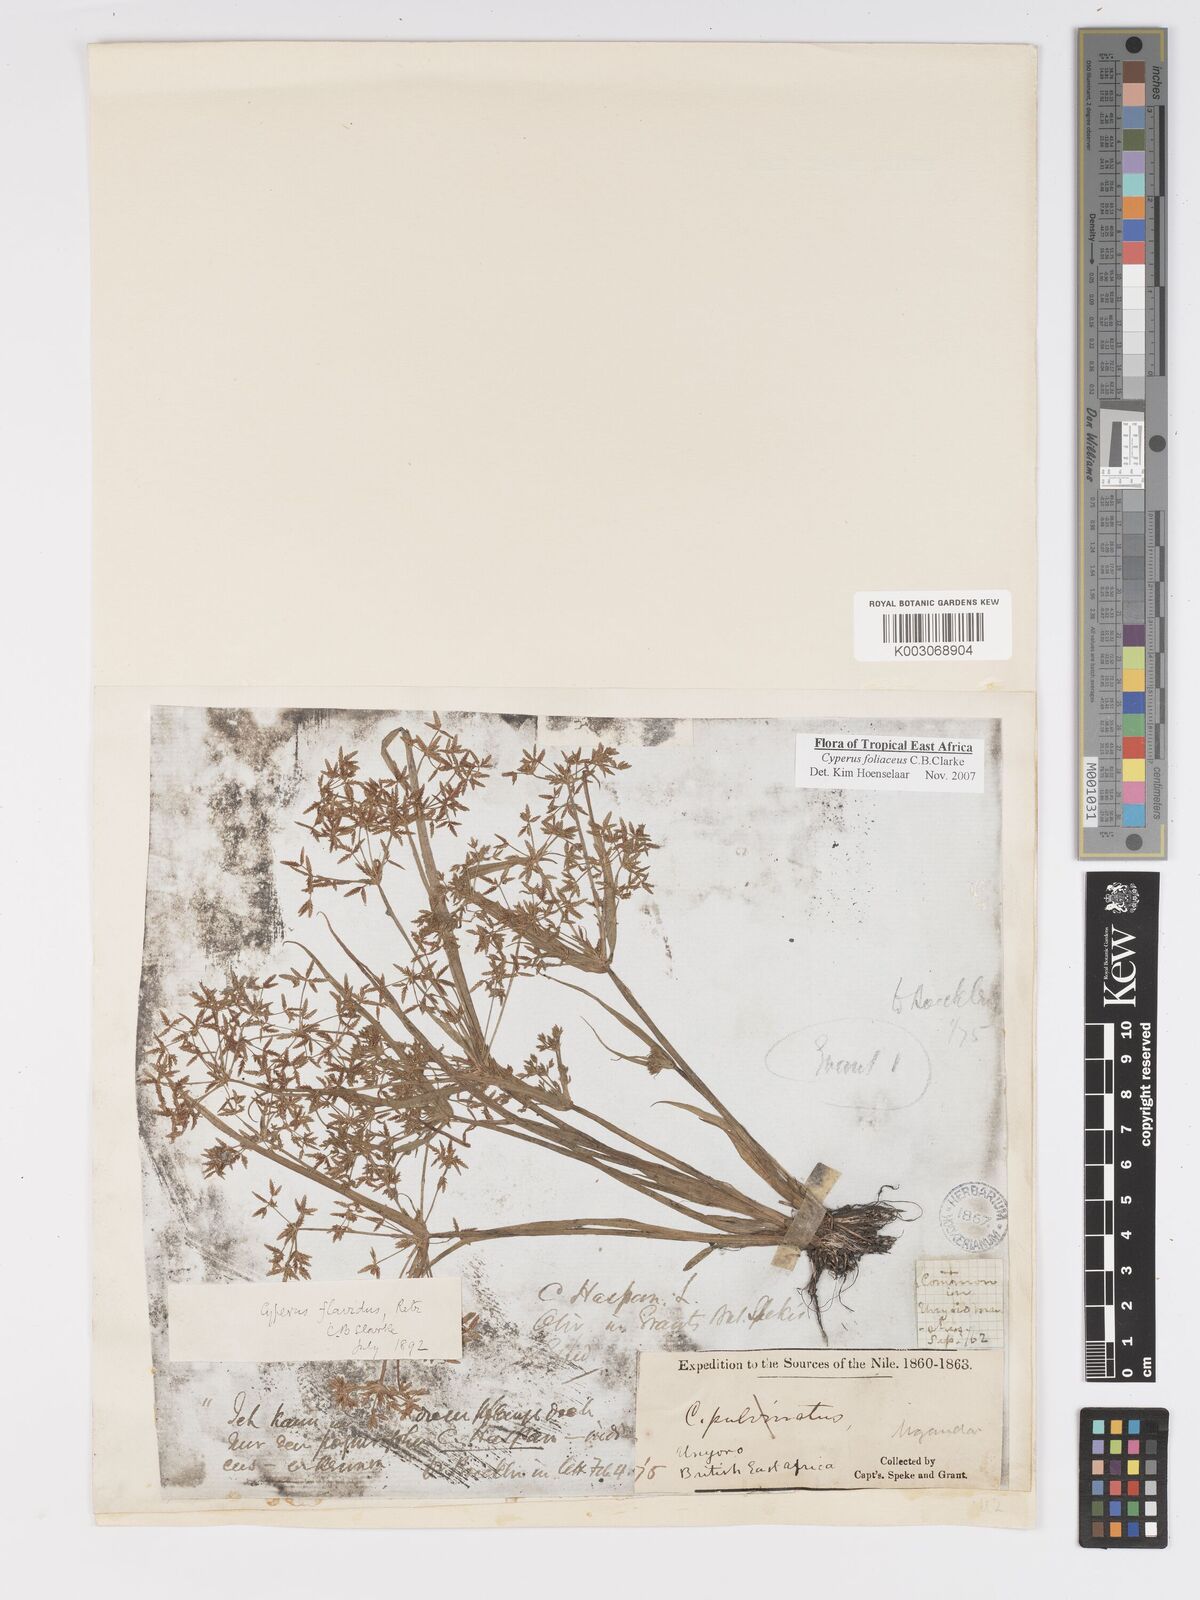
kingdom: Plantae
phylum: Tracheophyta
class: Liliopsida
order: Poales
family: Cyperaceae
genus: Cyperus
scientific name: Cyperus foliaceus
